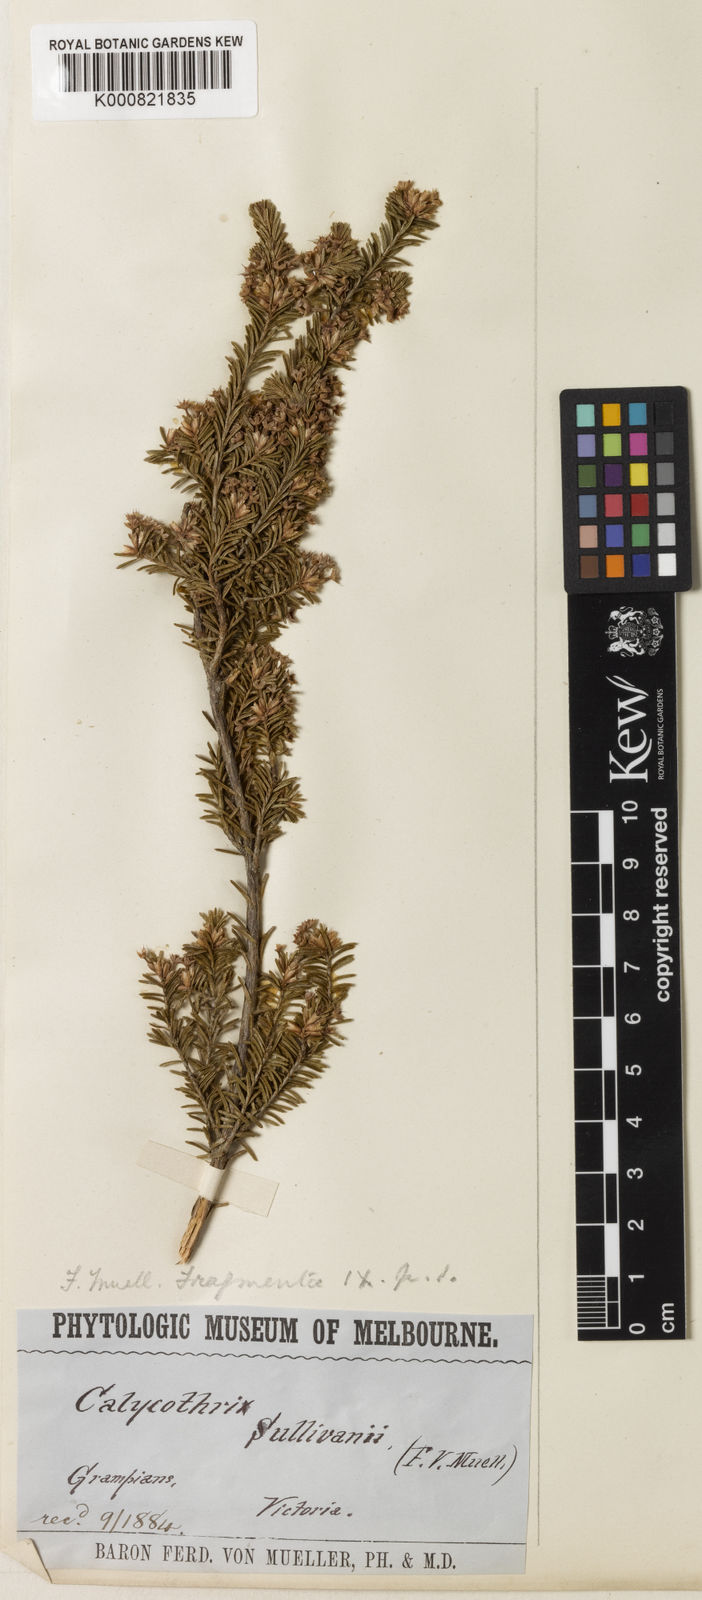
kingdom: Plantae
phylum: Tracheophyta
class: Magnoliopsida
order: Myrtales
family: Myrtaceae
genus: Calytrix
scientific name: Calytrix tetragona
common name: Common fringe myrtle
